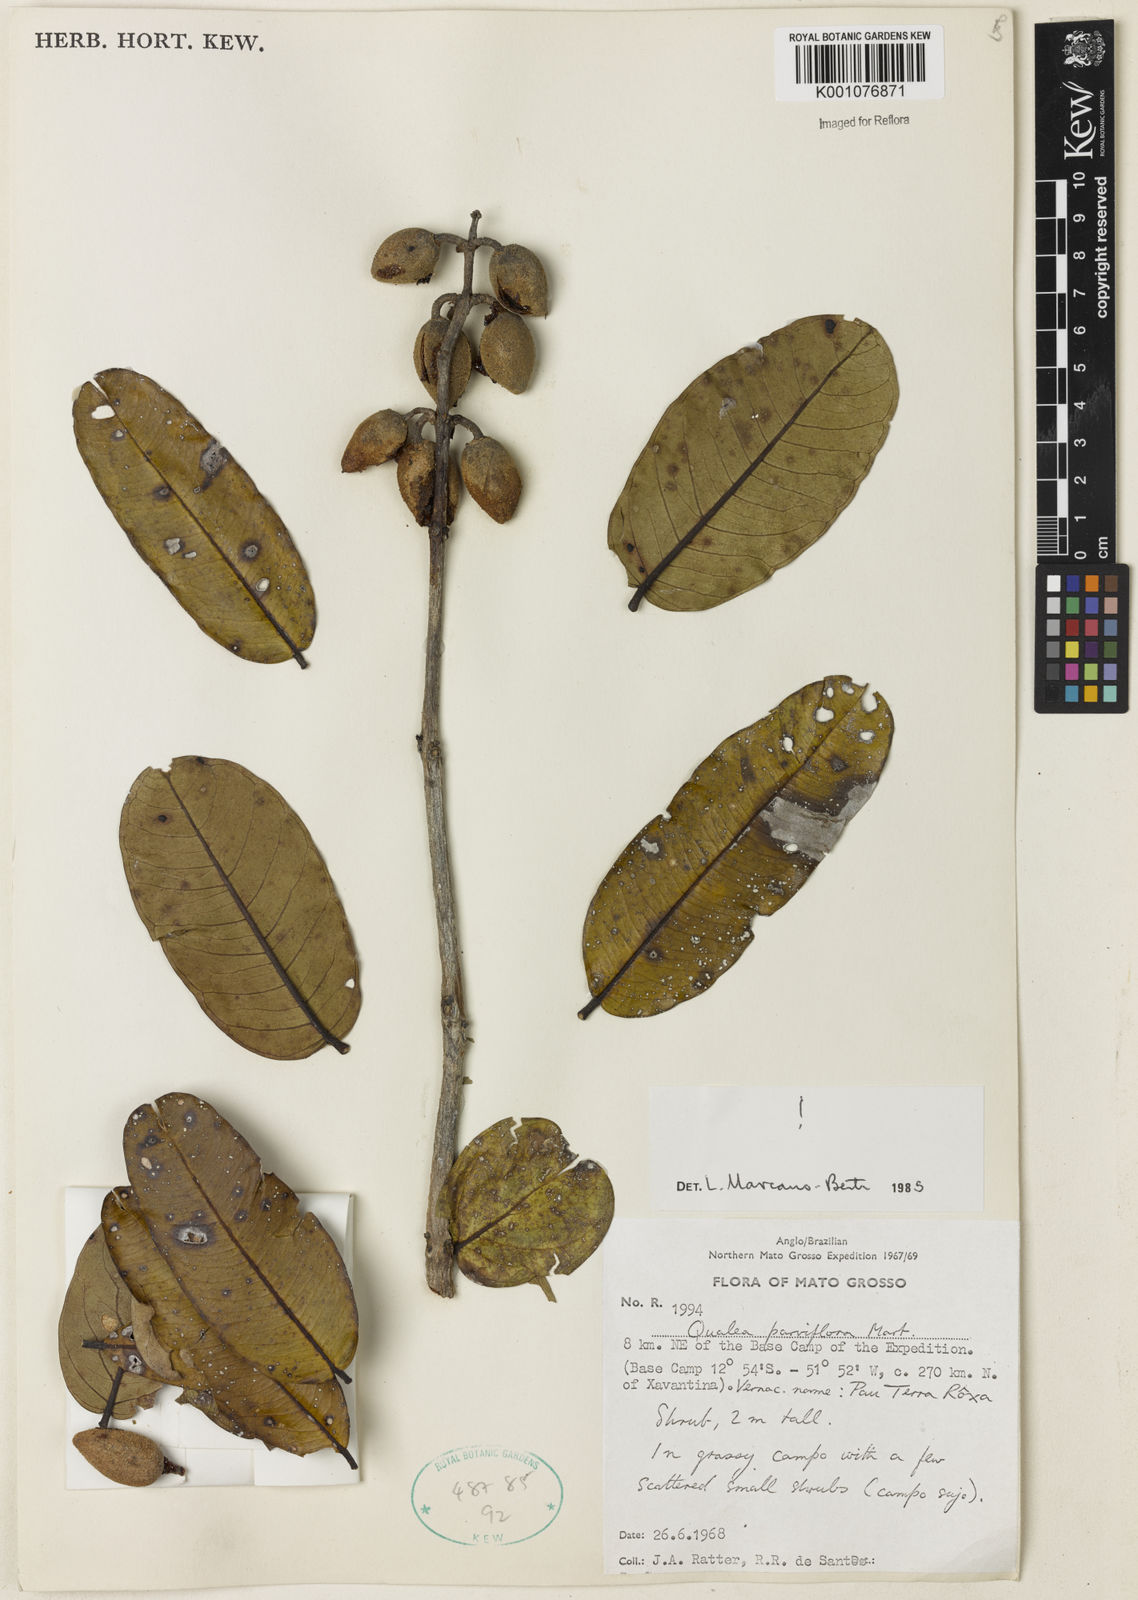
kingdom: Plantae
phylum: Tracheophyta
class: Magnoliopsida
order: Myrtales
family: Vochysiaceae
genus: Qualea
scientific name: Qualea parviflora
